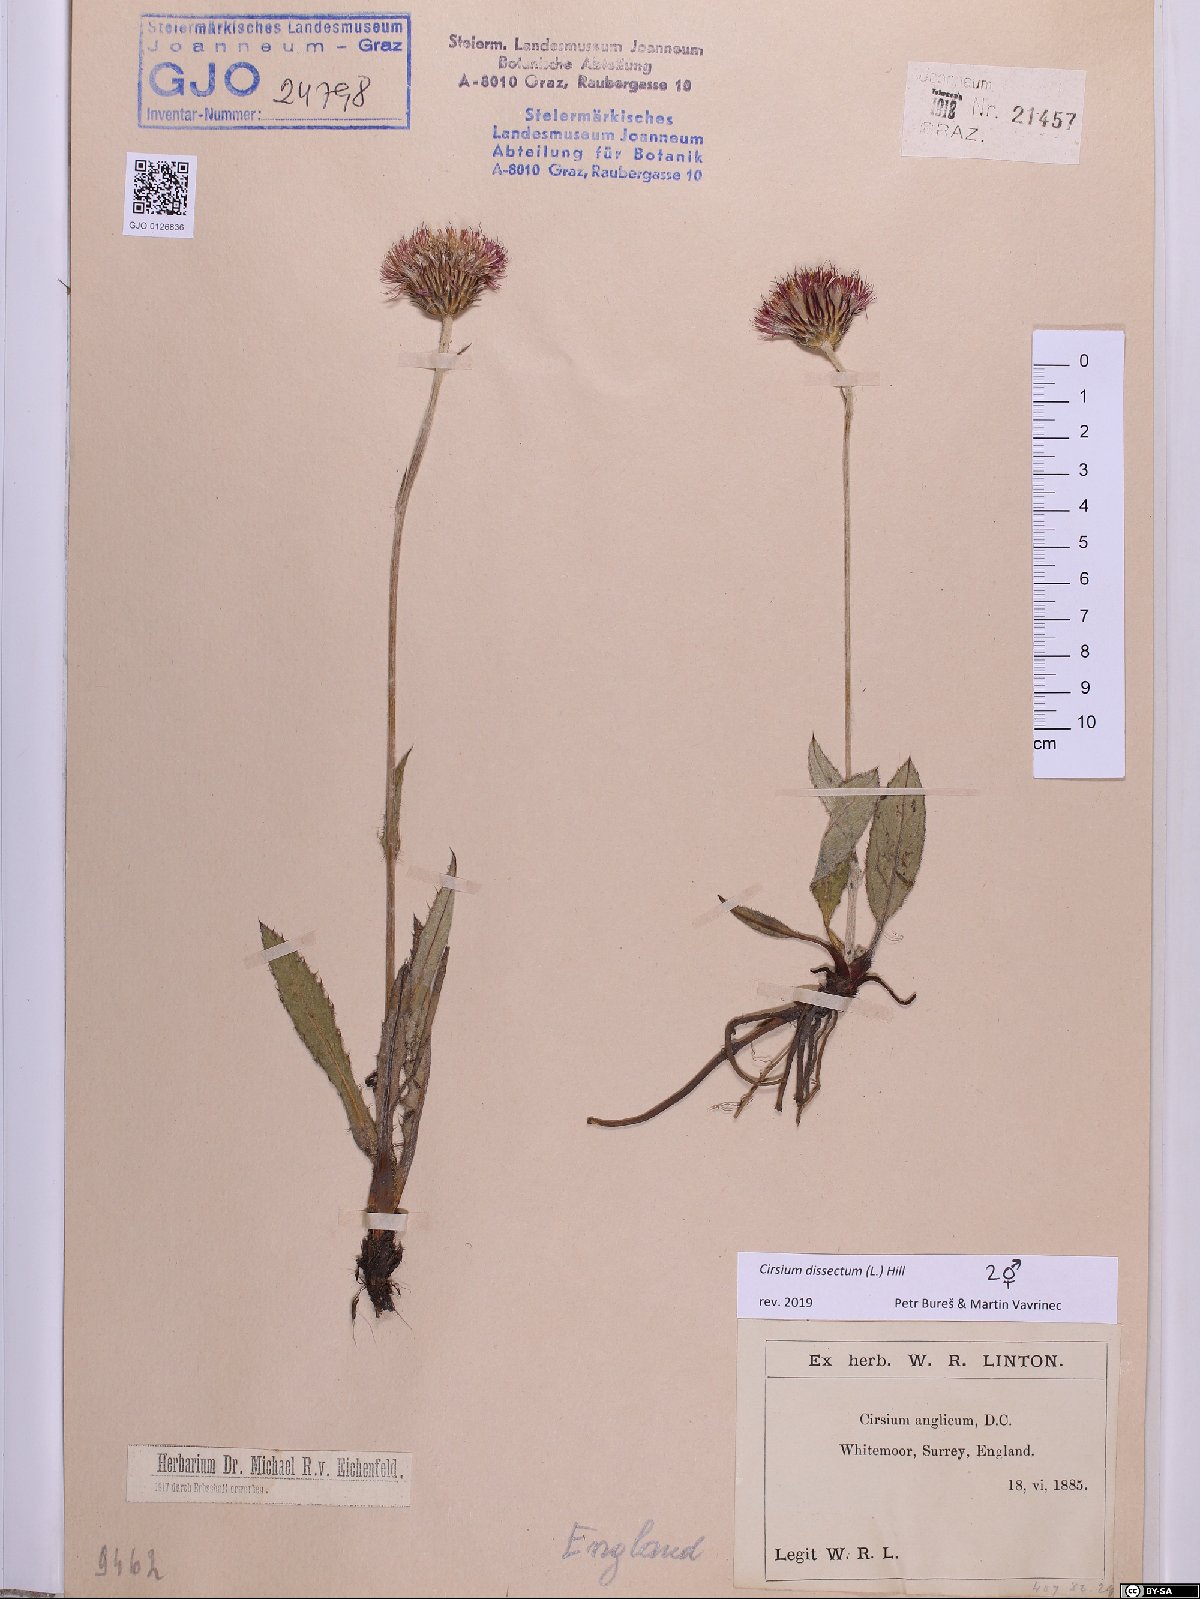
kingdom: Plantae
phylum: Tracheophyta
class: Magnoliopsida
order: Asterales
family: Asteraceae
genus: Cirsium
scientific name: Cirsium dissectum
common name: Meadow thistle
